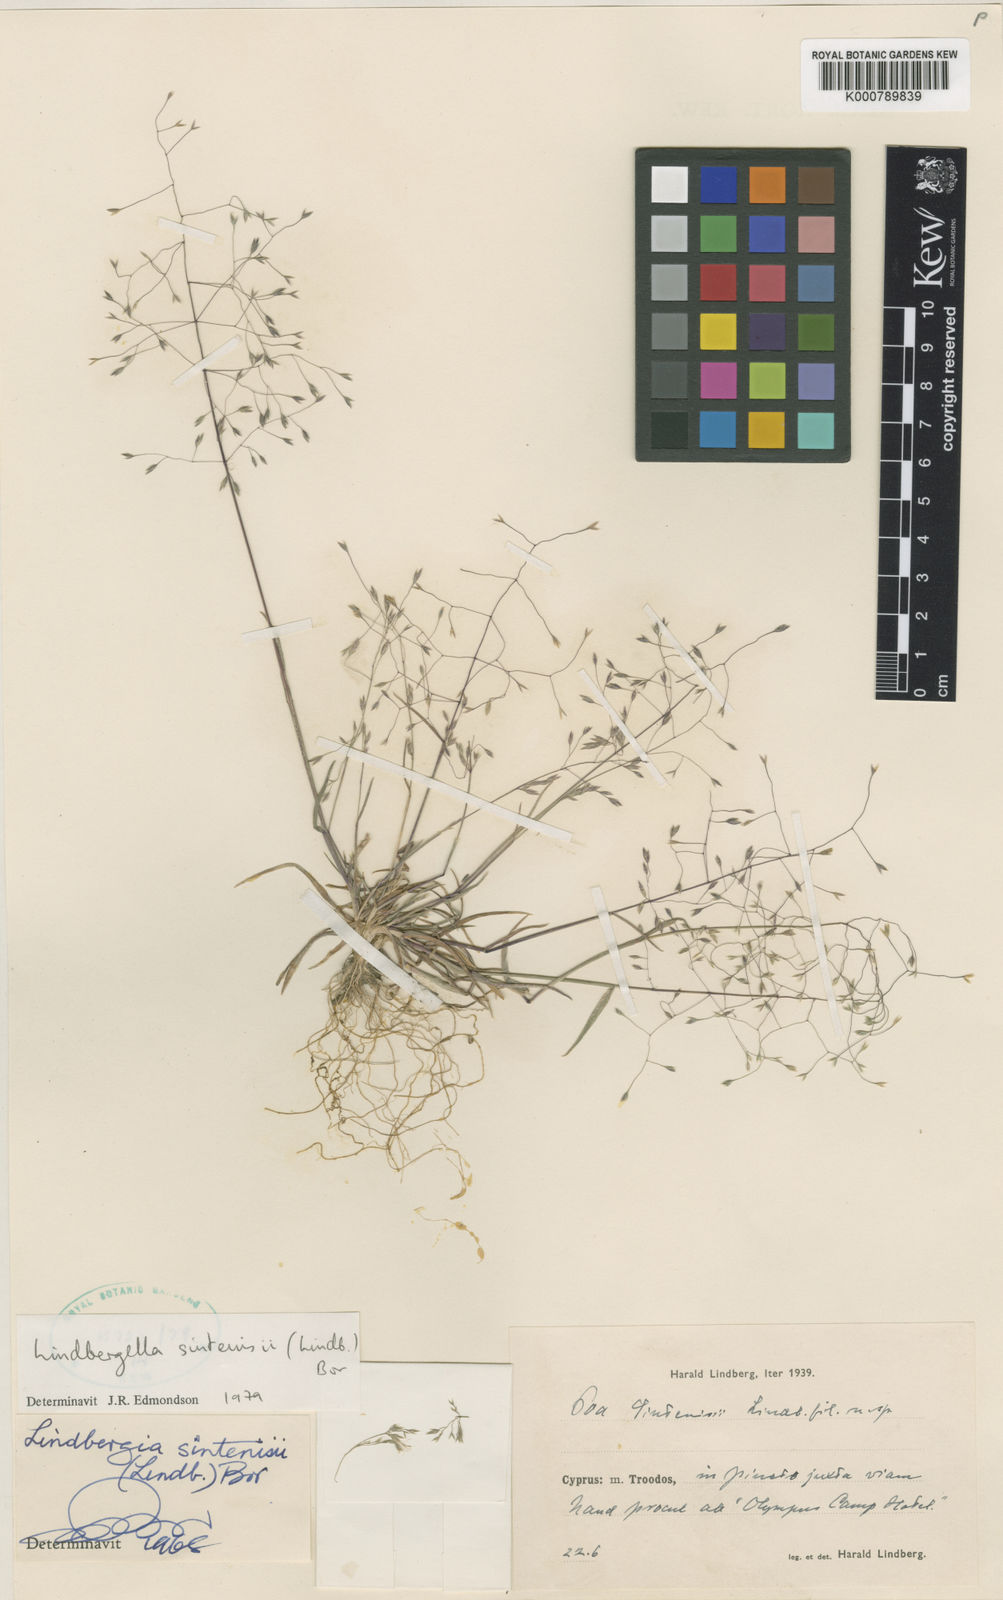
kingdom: Plantae
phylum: Tracheophyta
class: Liliopsida
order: Poales
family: Poaceae
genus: Poa
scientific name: Poa sintenisii
